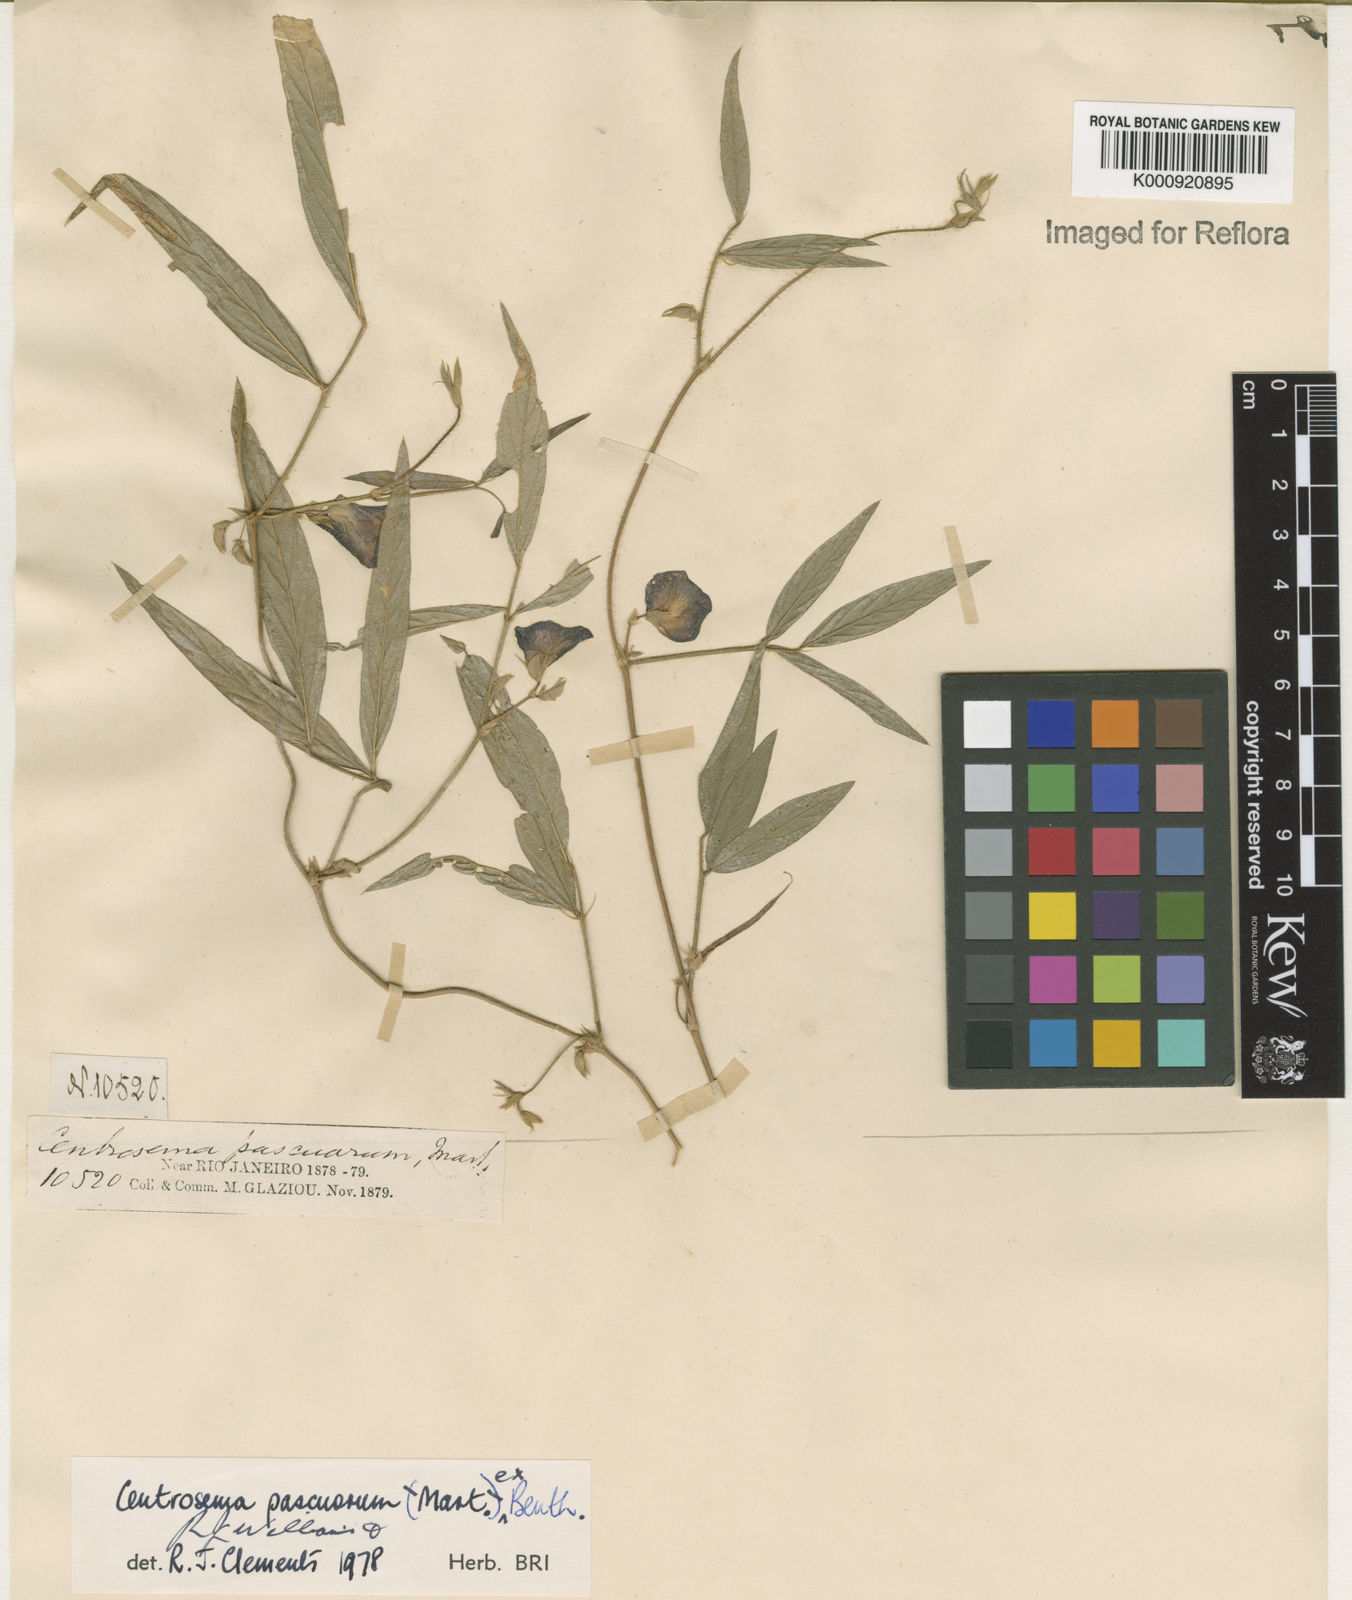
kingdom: Plantae
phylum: Tracheophyta
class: Magnoliopsida
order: Fabales
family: Fabaceae
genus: Centrosema
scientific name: Centrosema pascuorum
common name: Centurion
